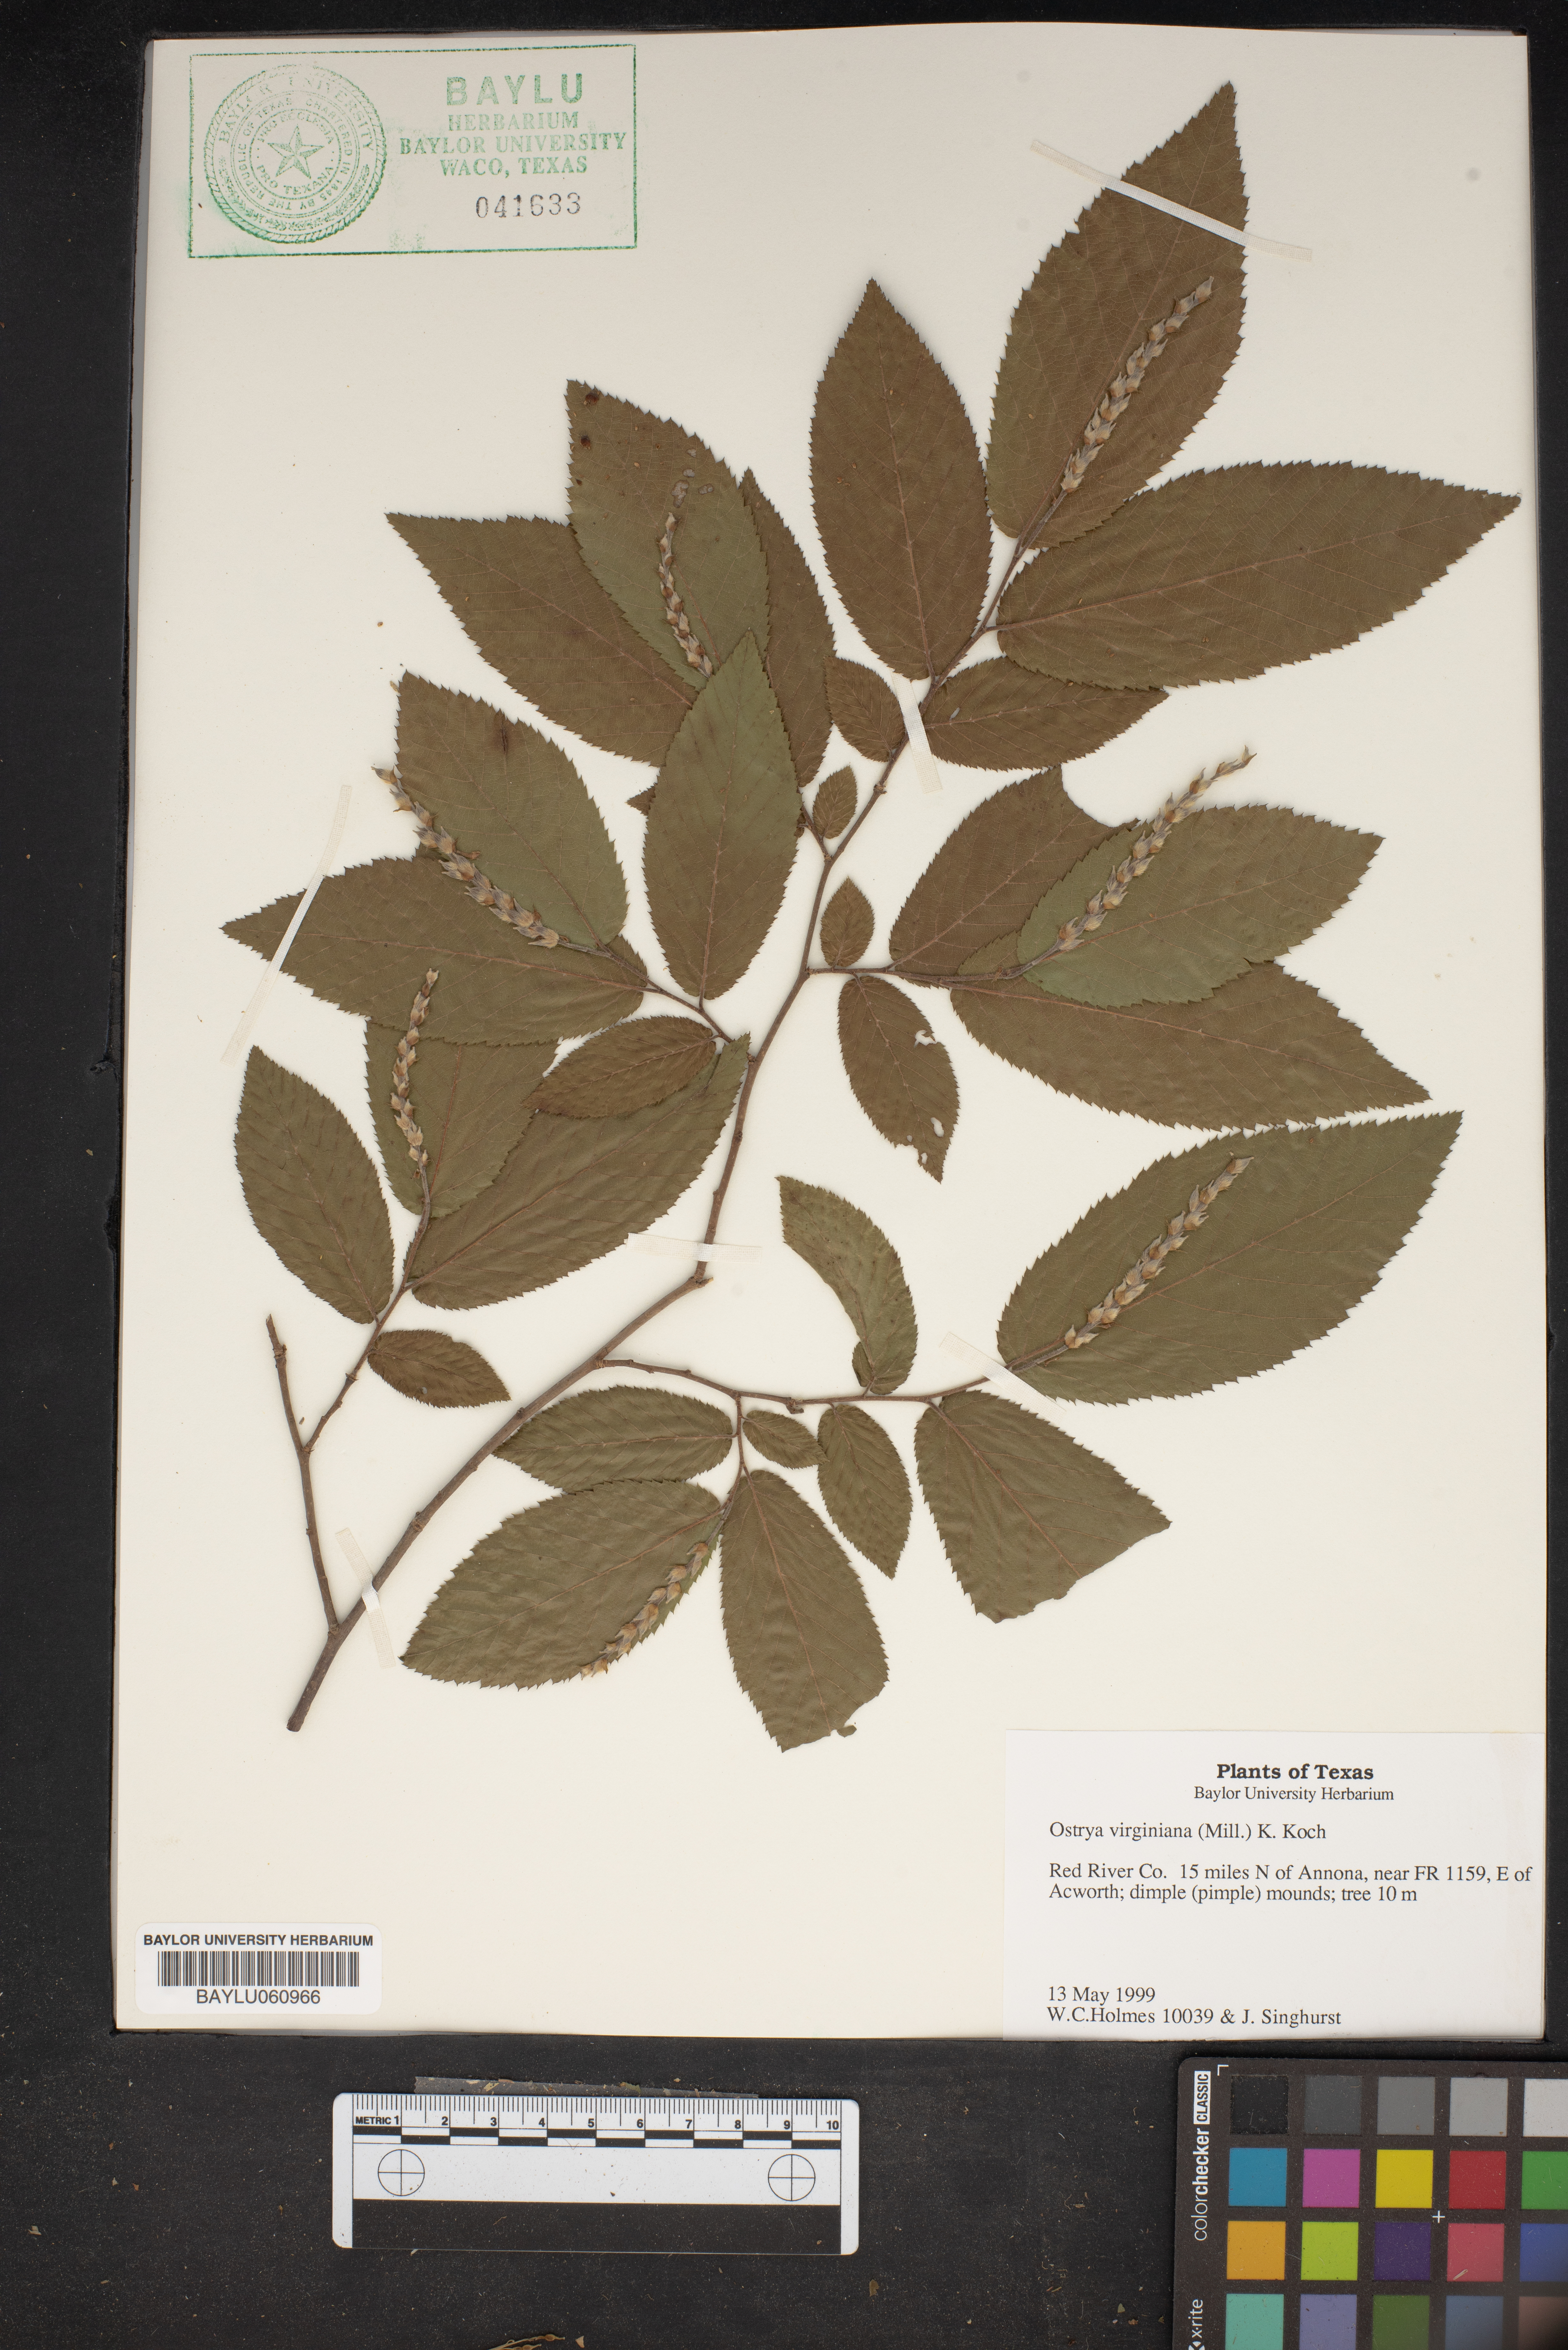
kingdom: Plantae
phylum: Tracheophyta
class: Magnoliopsida
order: Fagales
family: Betulaceae
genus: Ostrya
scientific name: Ostrya virginiana
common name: Ironwood
